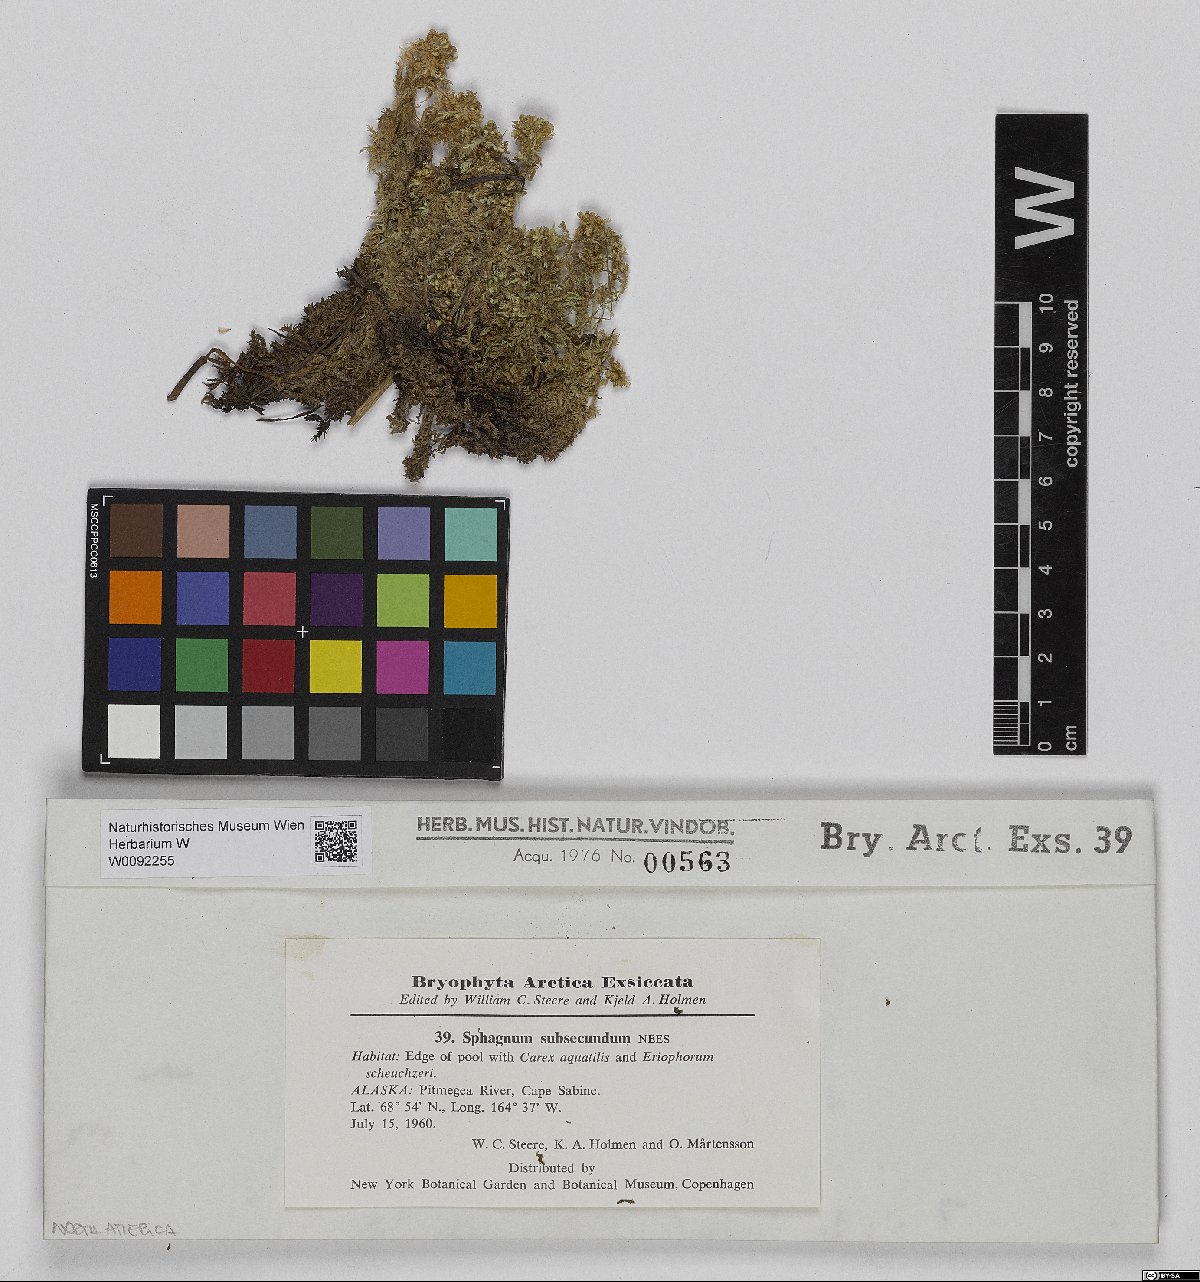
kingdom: Plantae
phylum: Bryophyta
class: Sphagnopsida
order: Sphagnales
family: Sphagnaceae
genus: Sphagnum
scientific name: Sphagnum subsecundum
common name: Orange peat moss
